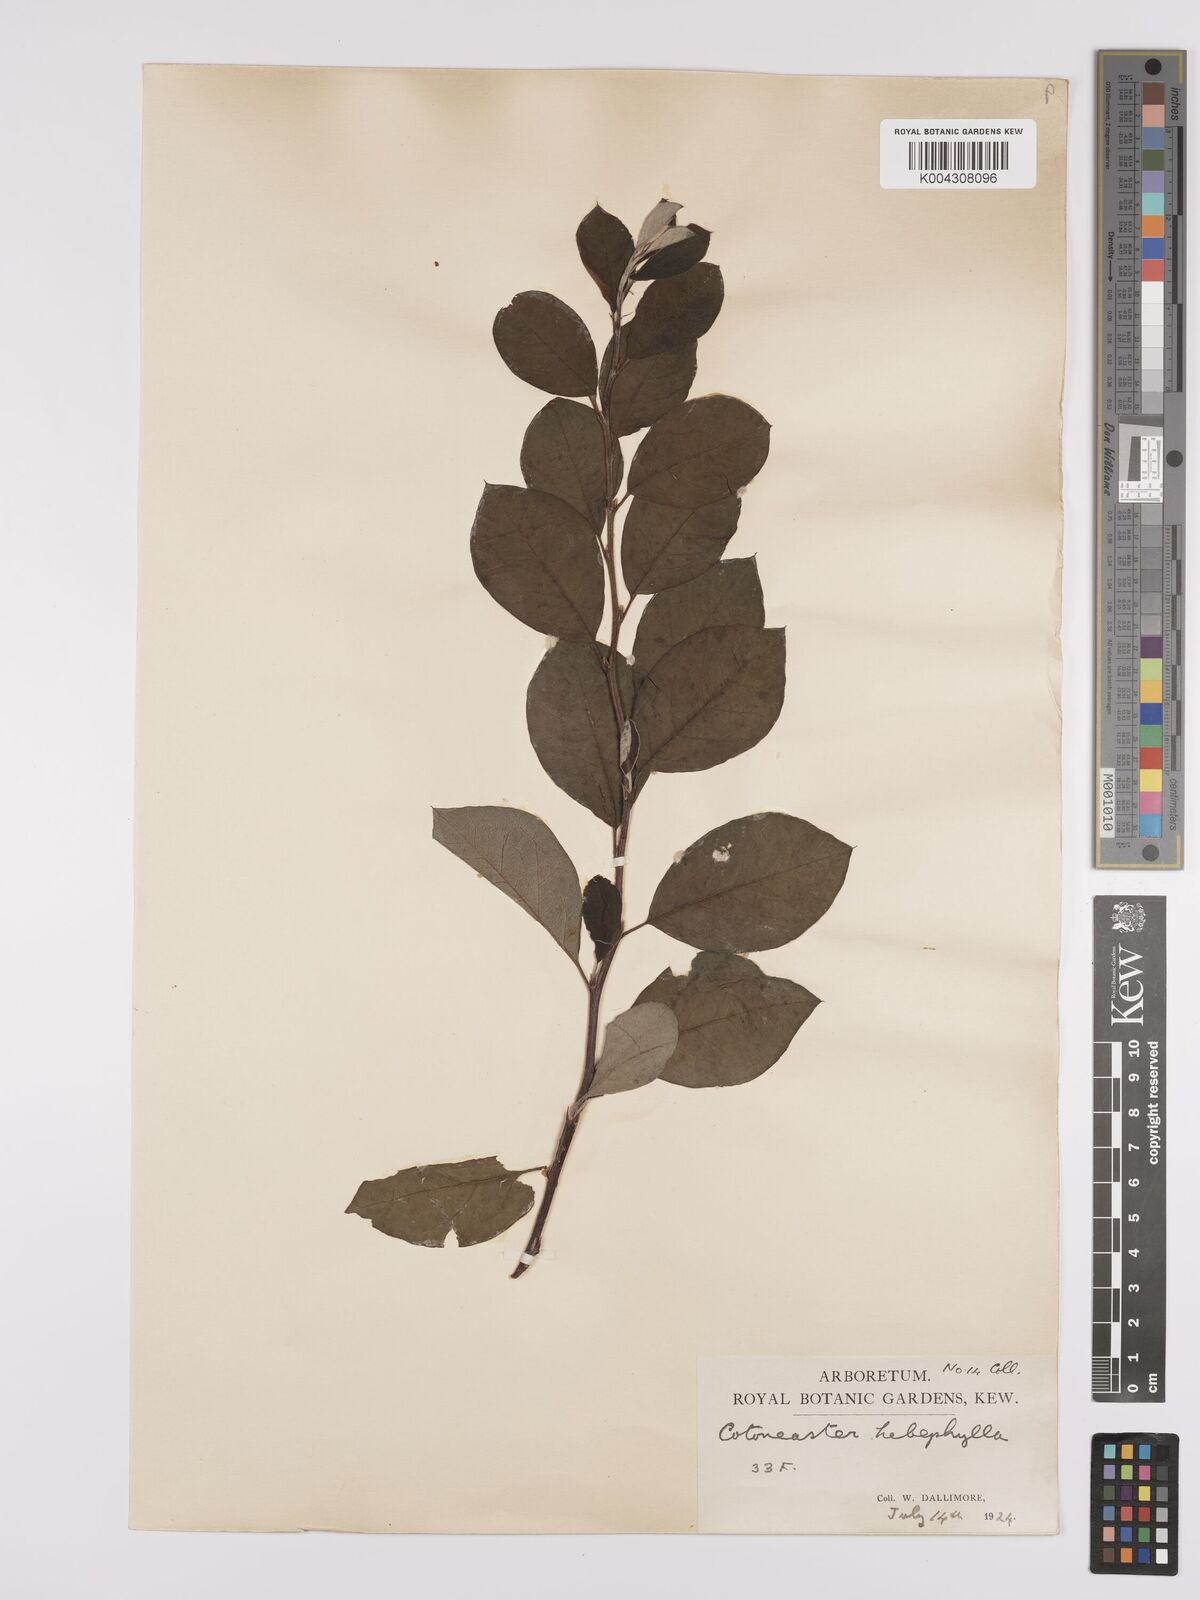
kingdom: Plantae
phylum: Tracheophyta
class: Magnoliopsida
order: Rosales
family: Rosaceae
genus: Cotoneaster
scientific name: Cotoneaster hebephyllus
